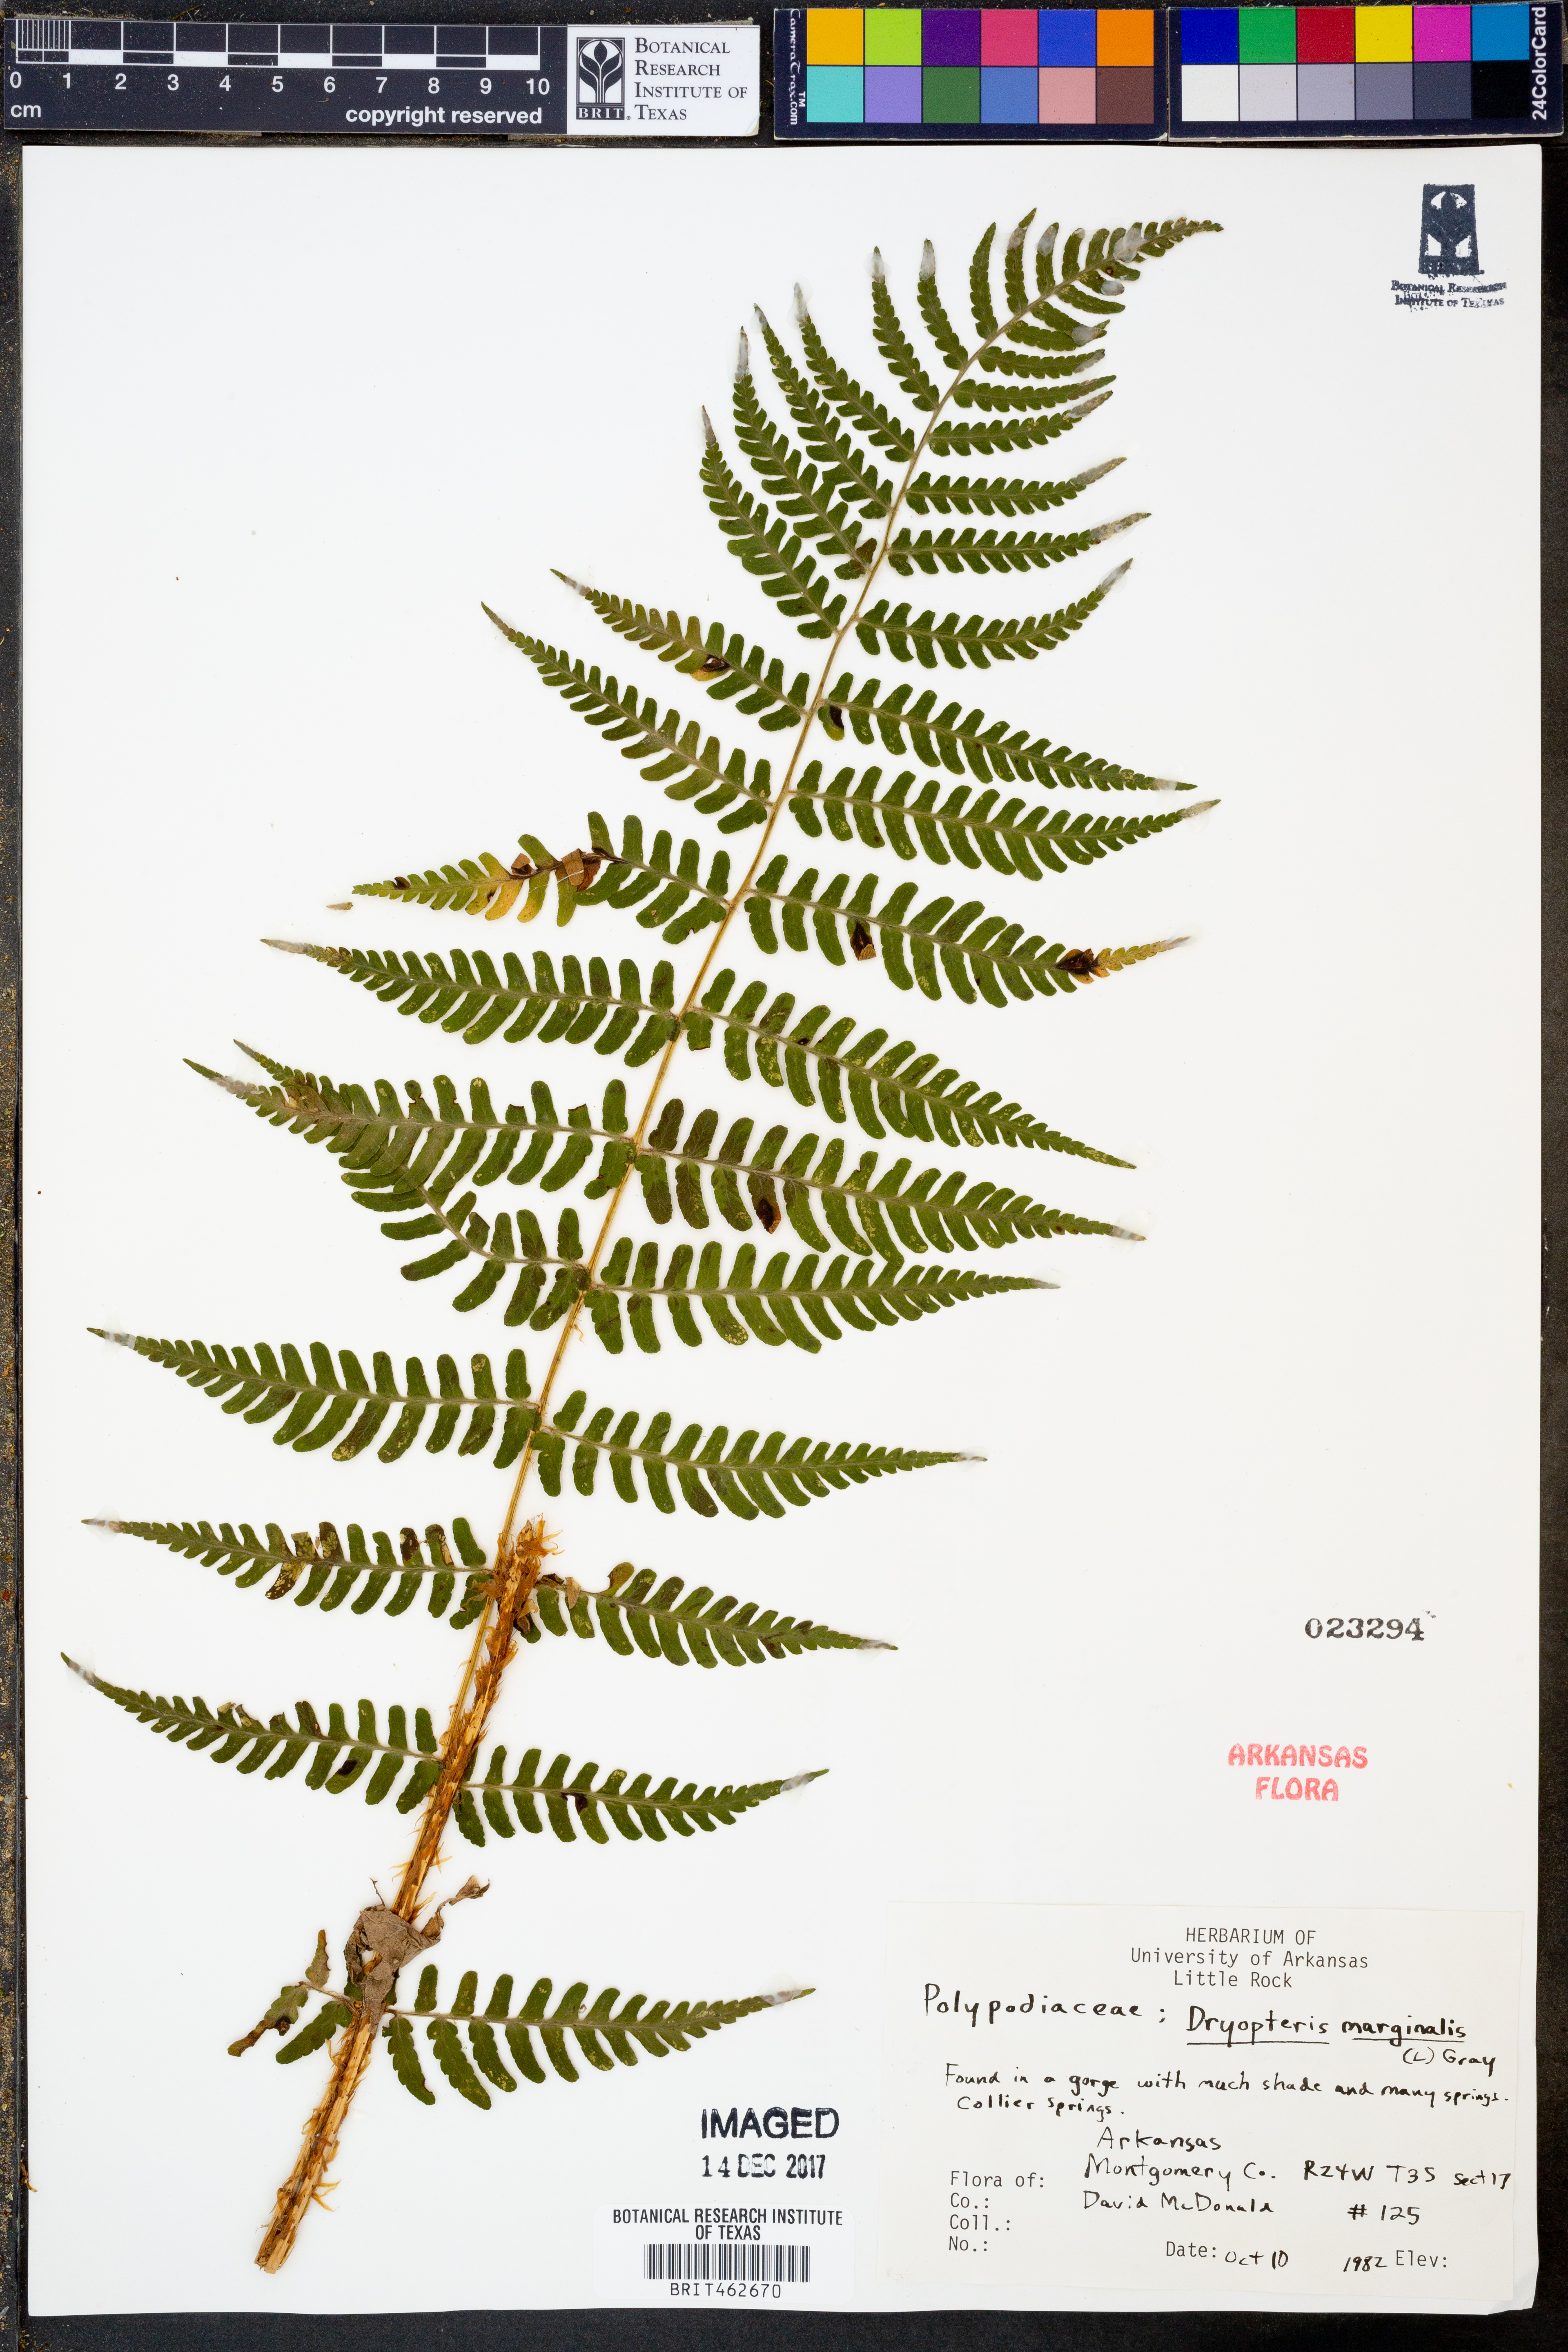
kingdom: Plantae
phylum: Tracheophyta
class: Polypodiopsida
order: Polypodiales
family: Dryopteridaceae
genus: Dryopteris
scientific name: Dryopteris marginalis
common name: Marginal wood fern
